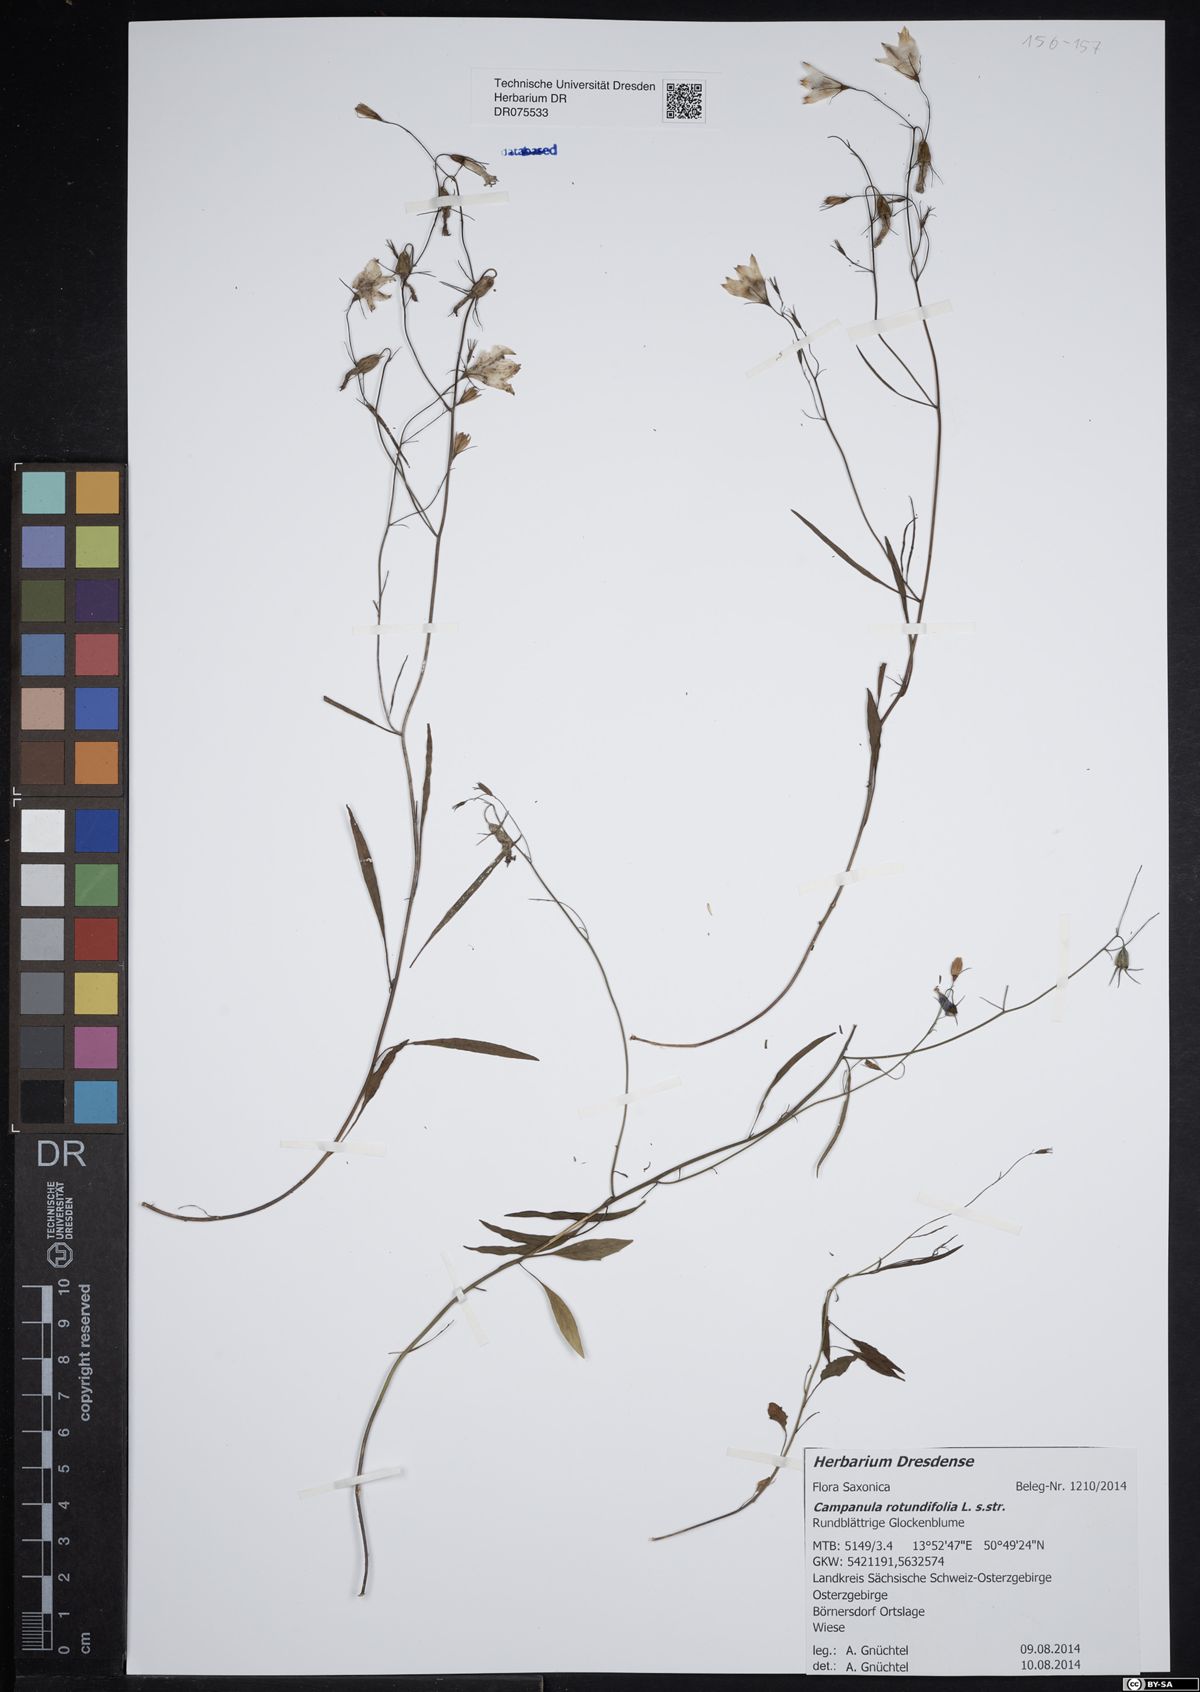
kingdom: Plantae
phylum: Tracheophyta
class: Magnoliopsida
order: Asterales
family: Campanulaceae
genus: Campanula
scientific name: Campanula rotundifolia
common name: Harebell
